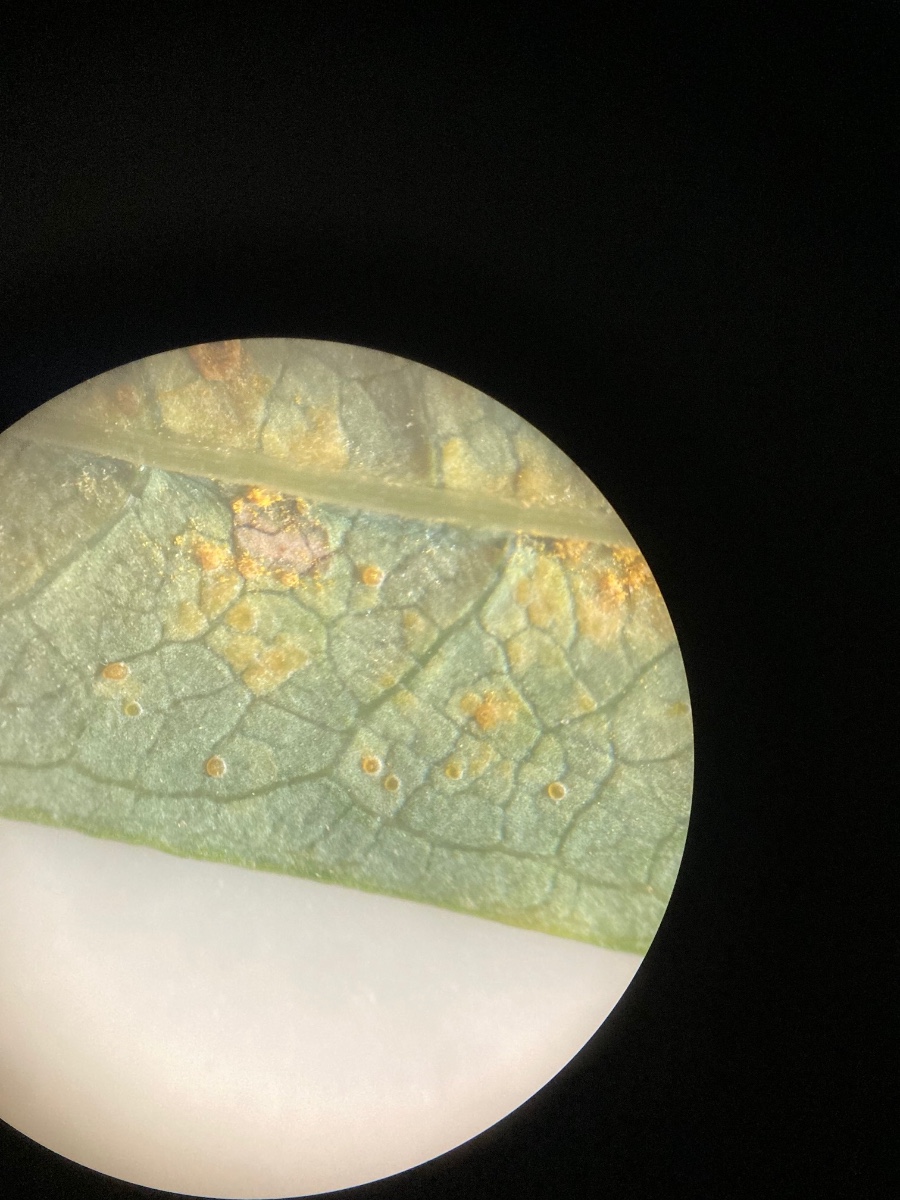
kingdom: Fungi
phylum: Basidiomycota
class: Pucciniomycetes
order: Pucciniales
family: Pucciniastraceae
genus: Pucciniastrum
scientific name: Pucciniastrum epilobii
